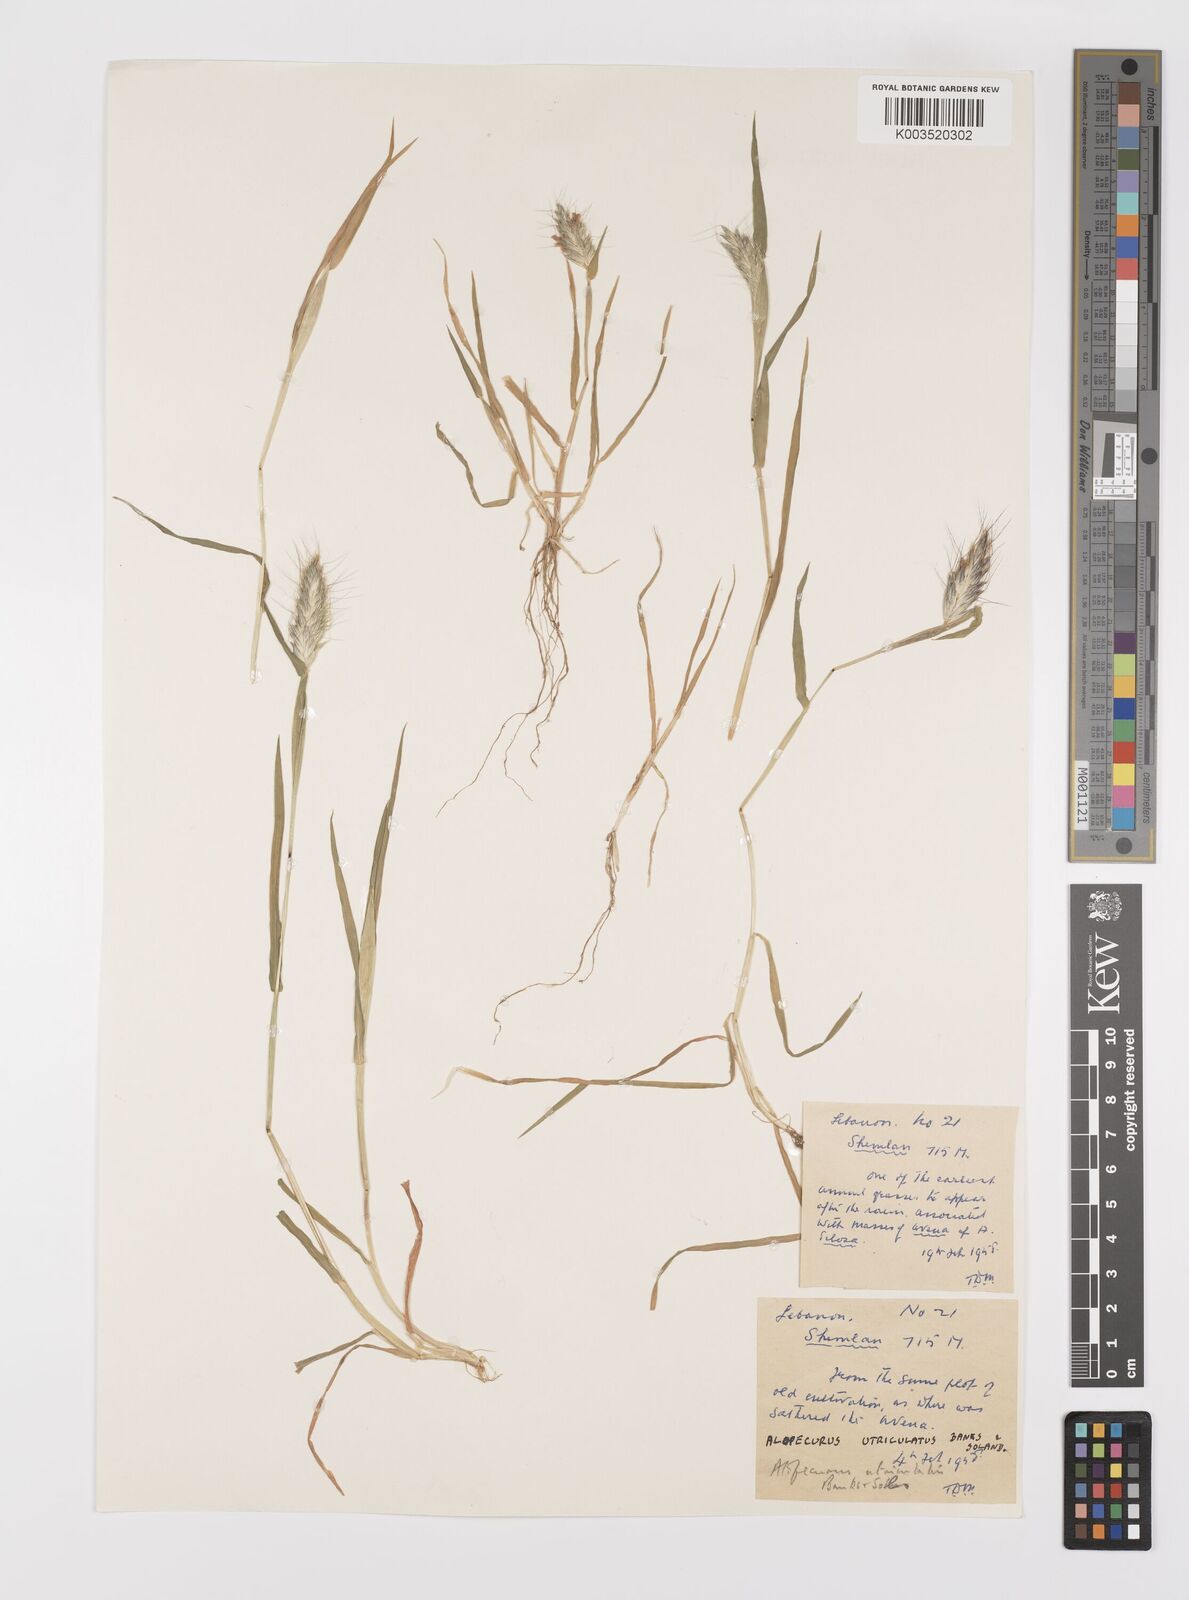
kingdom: Plantae
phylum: Tracheophyta
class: Liliopsida
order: Poales
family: Poaceae
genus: Alopecurus
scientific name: Alopecurus utriculatus
